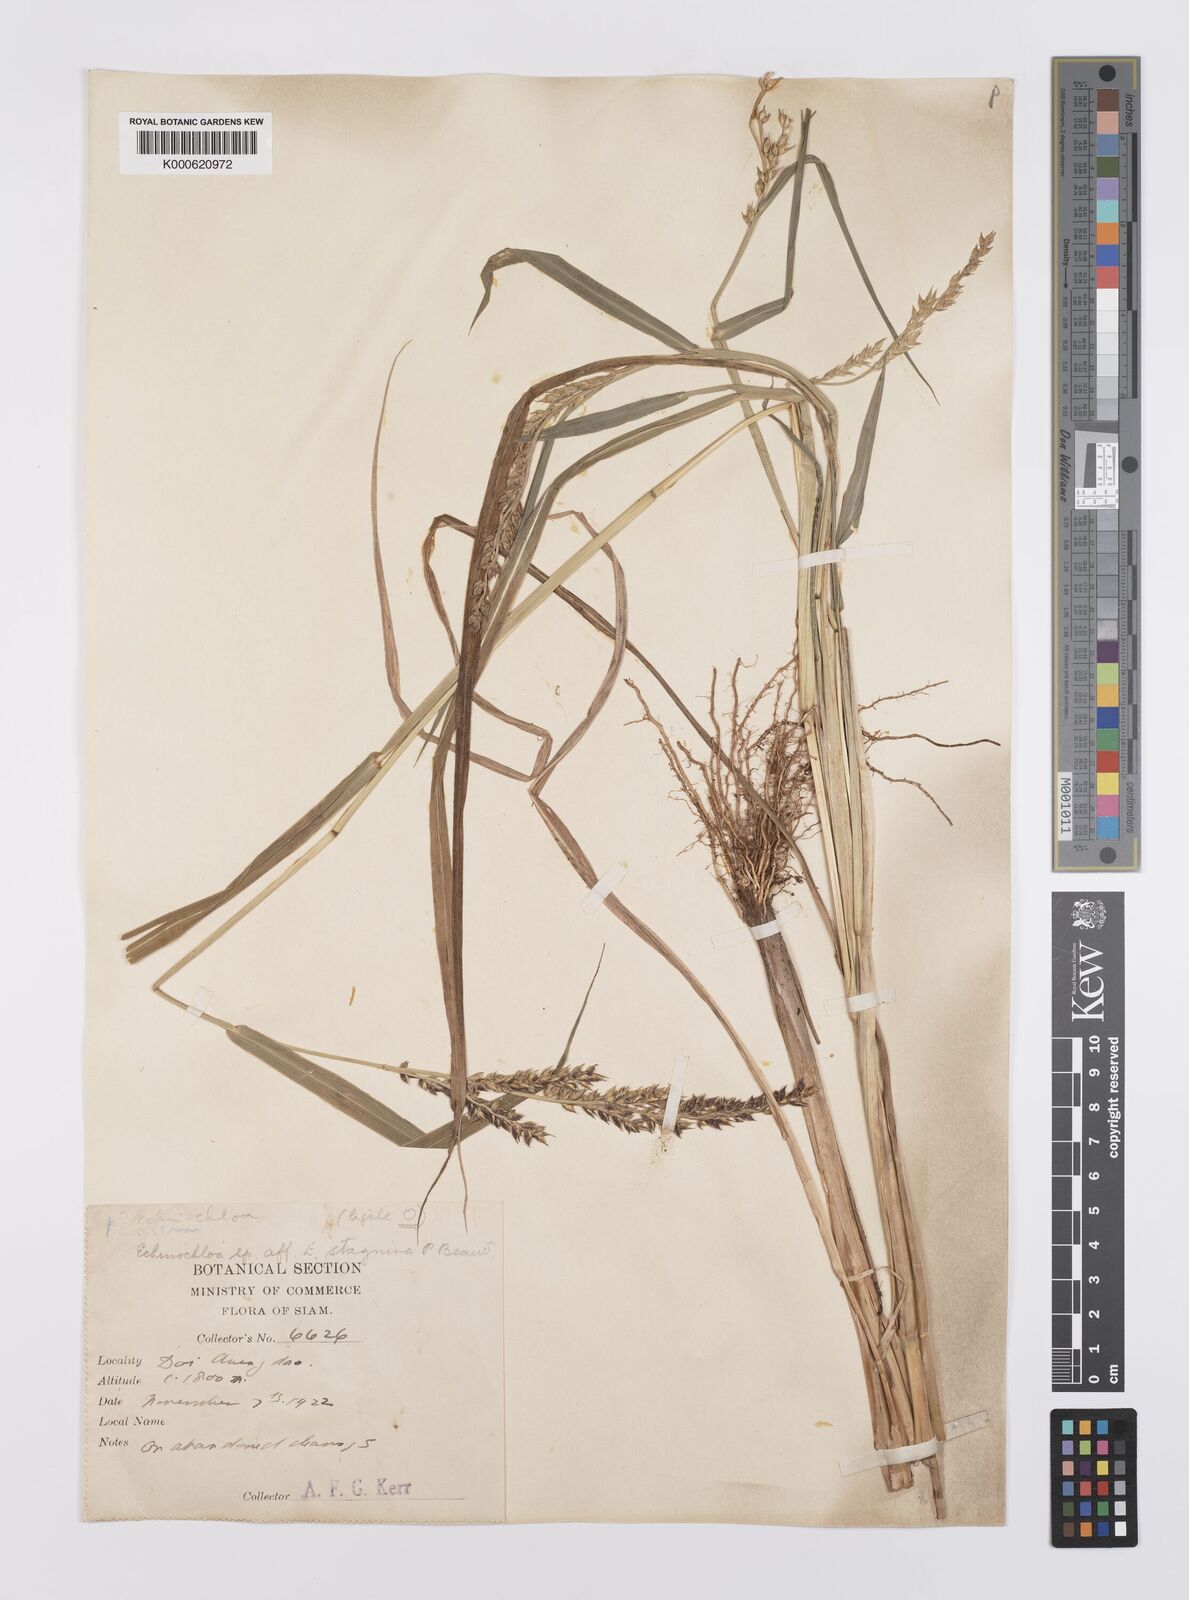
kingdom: Plantae
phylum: Tracheophyta
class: Liliopsida
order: Poales
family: Poaceae
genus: Echinochloa
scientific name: Echinochloa crus-galli
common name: Cockspur
